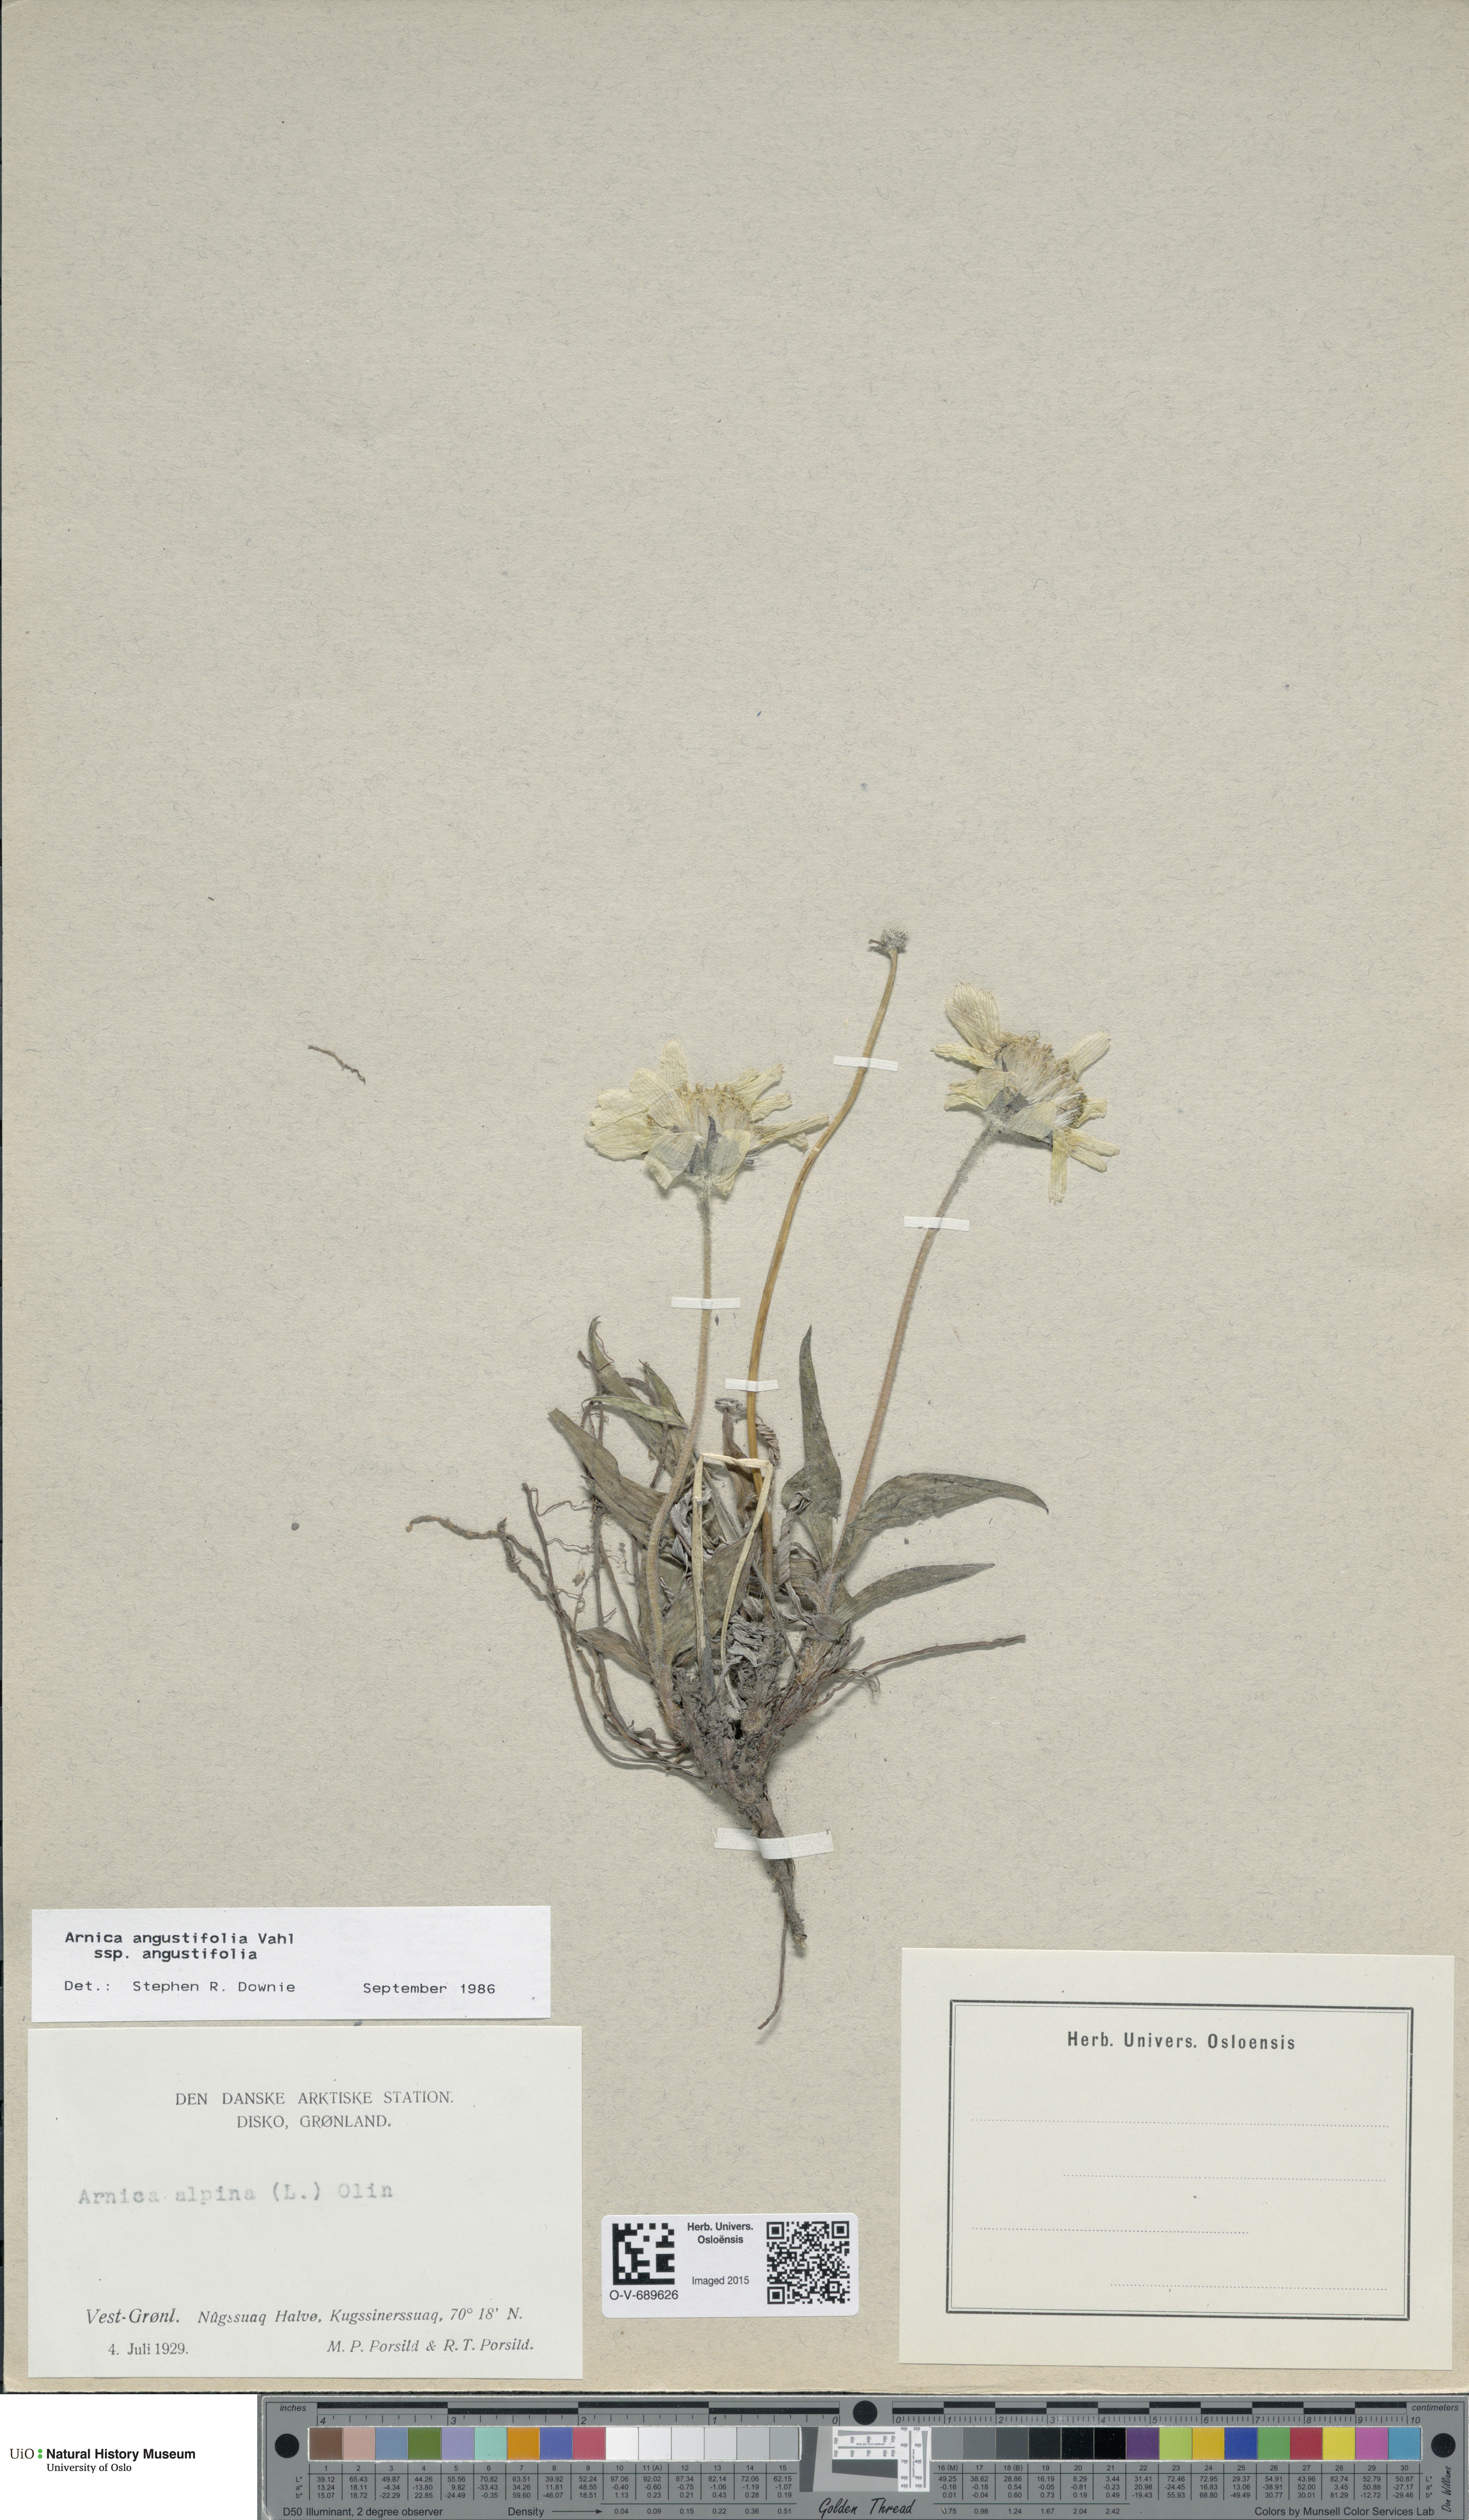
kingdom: Plantae
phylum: Tracheophyta
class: Magnoliopsida
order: Asterales
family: Asteraceae
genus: Arnica
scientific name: Arnica angustifolia
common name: Arctic arnica
